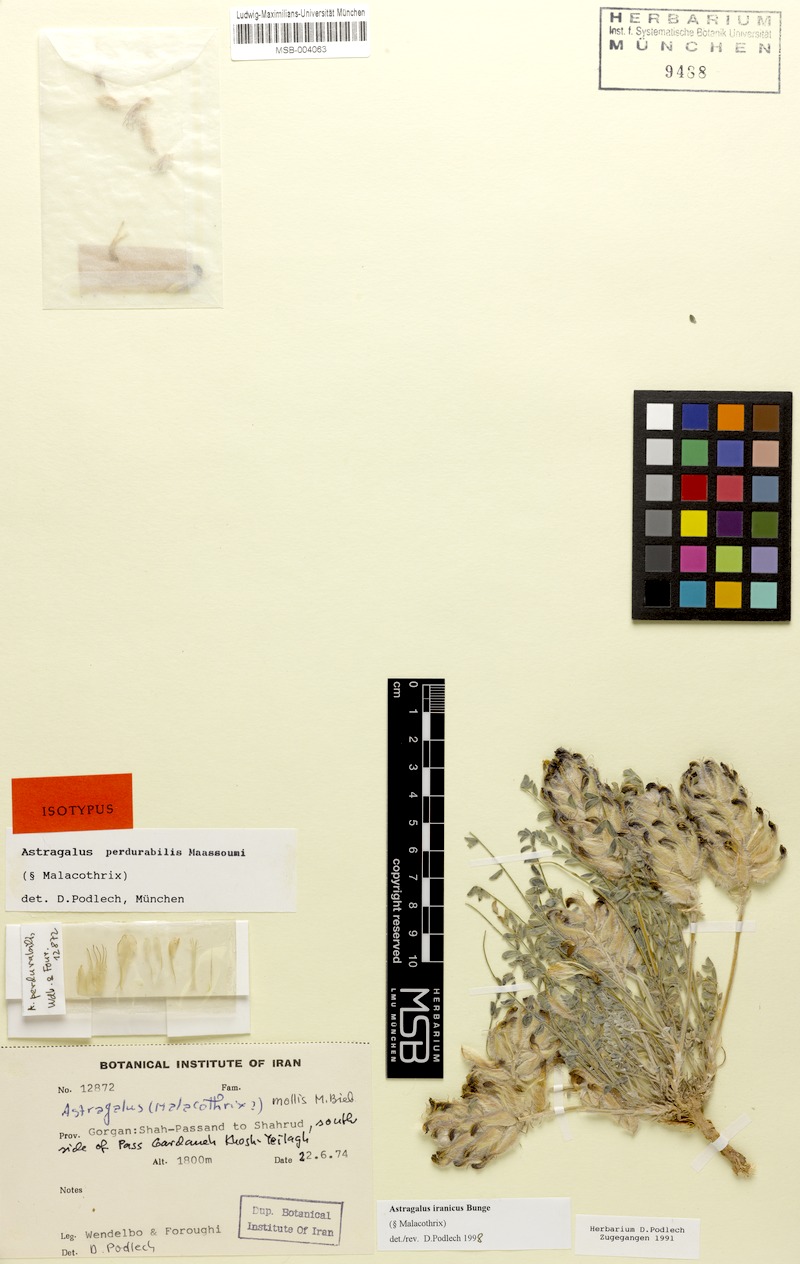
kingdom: Plantae
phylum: Tracheophyta
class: Magnoliopsida
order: Fabales
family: Fabaceae
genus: Astragalus
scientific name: Astragalus iranicus
